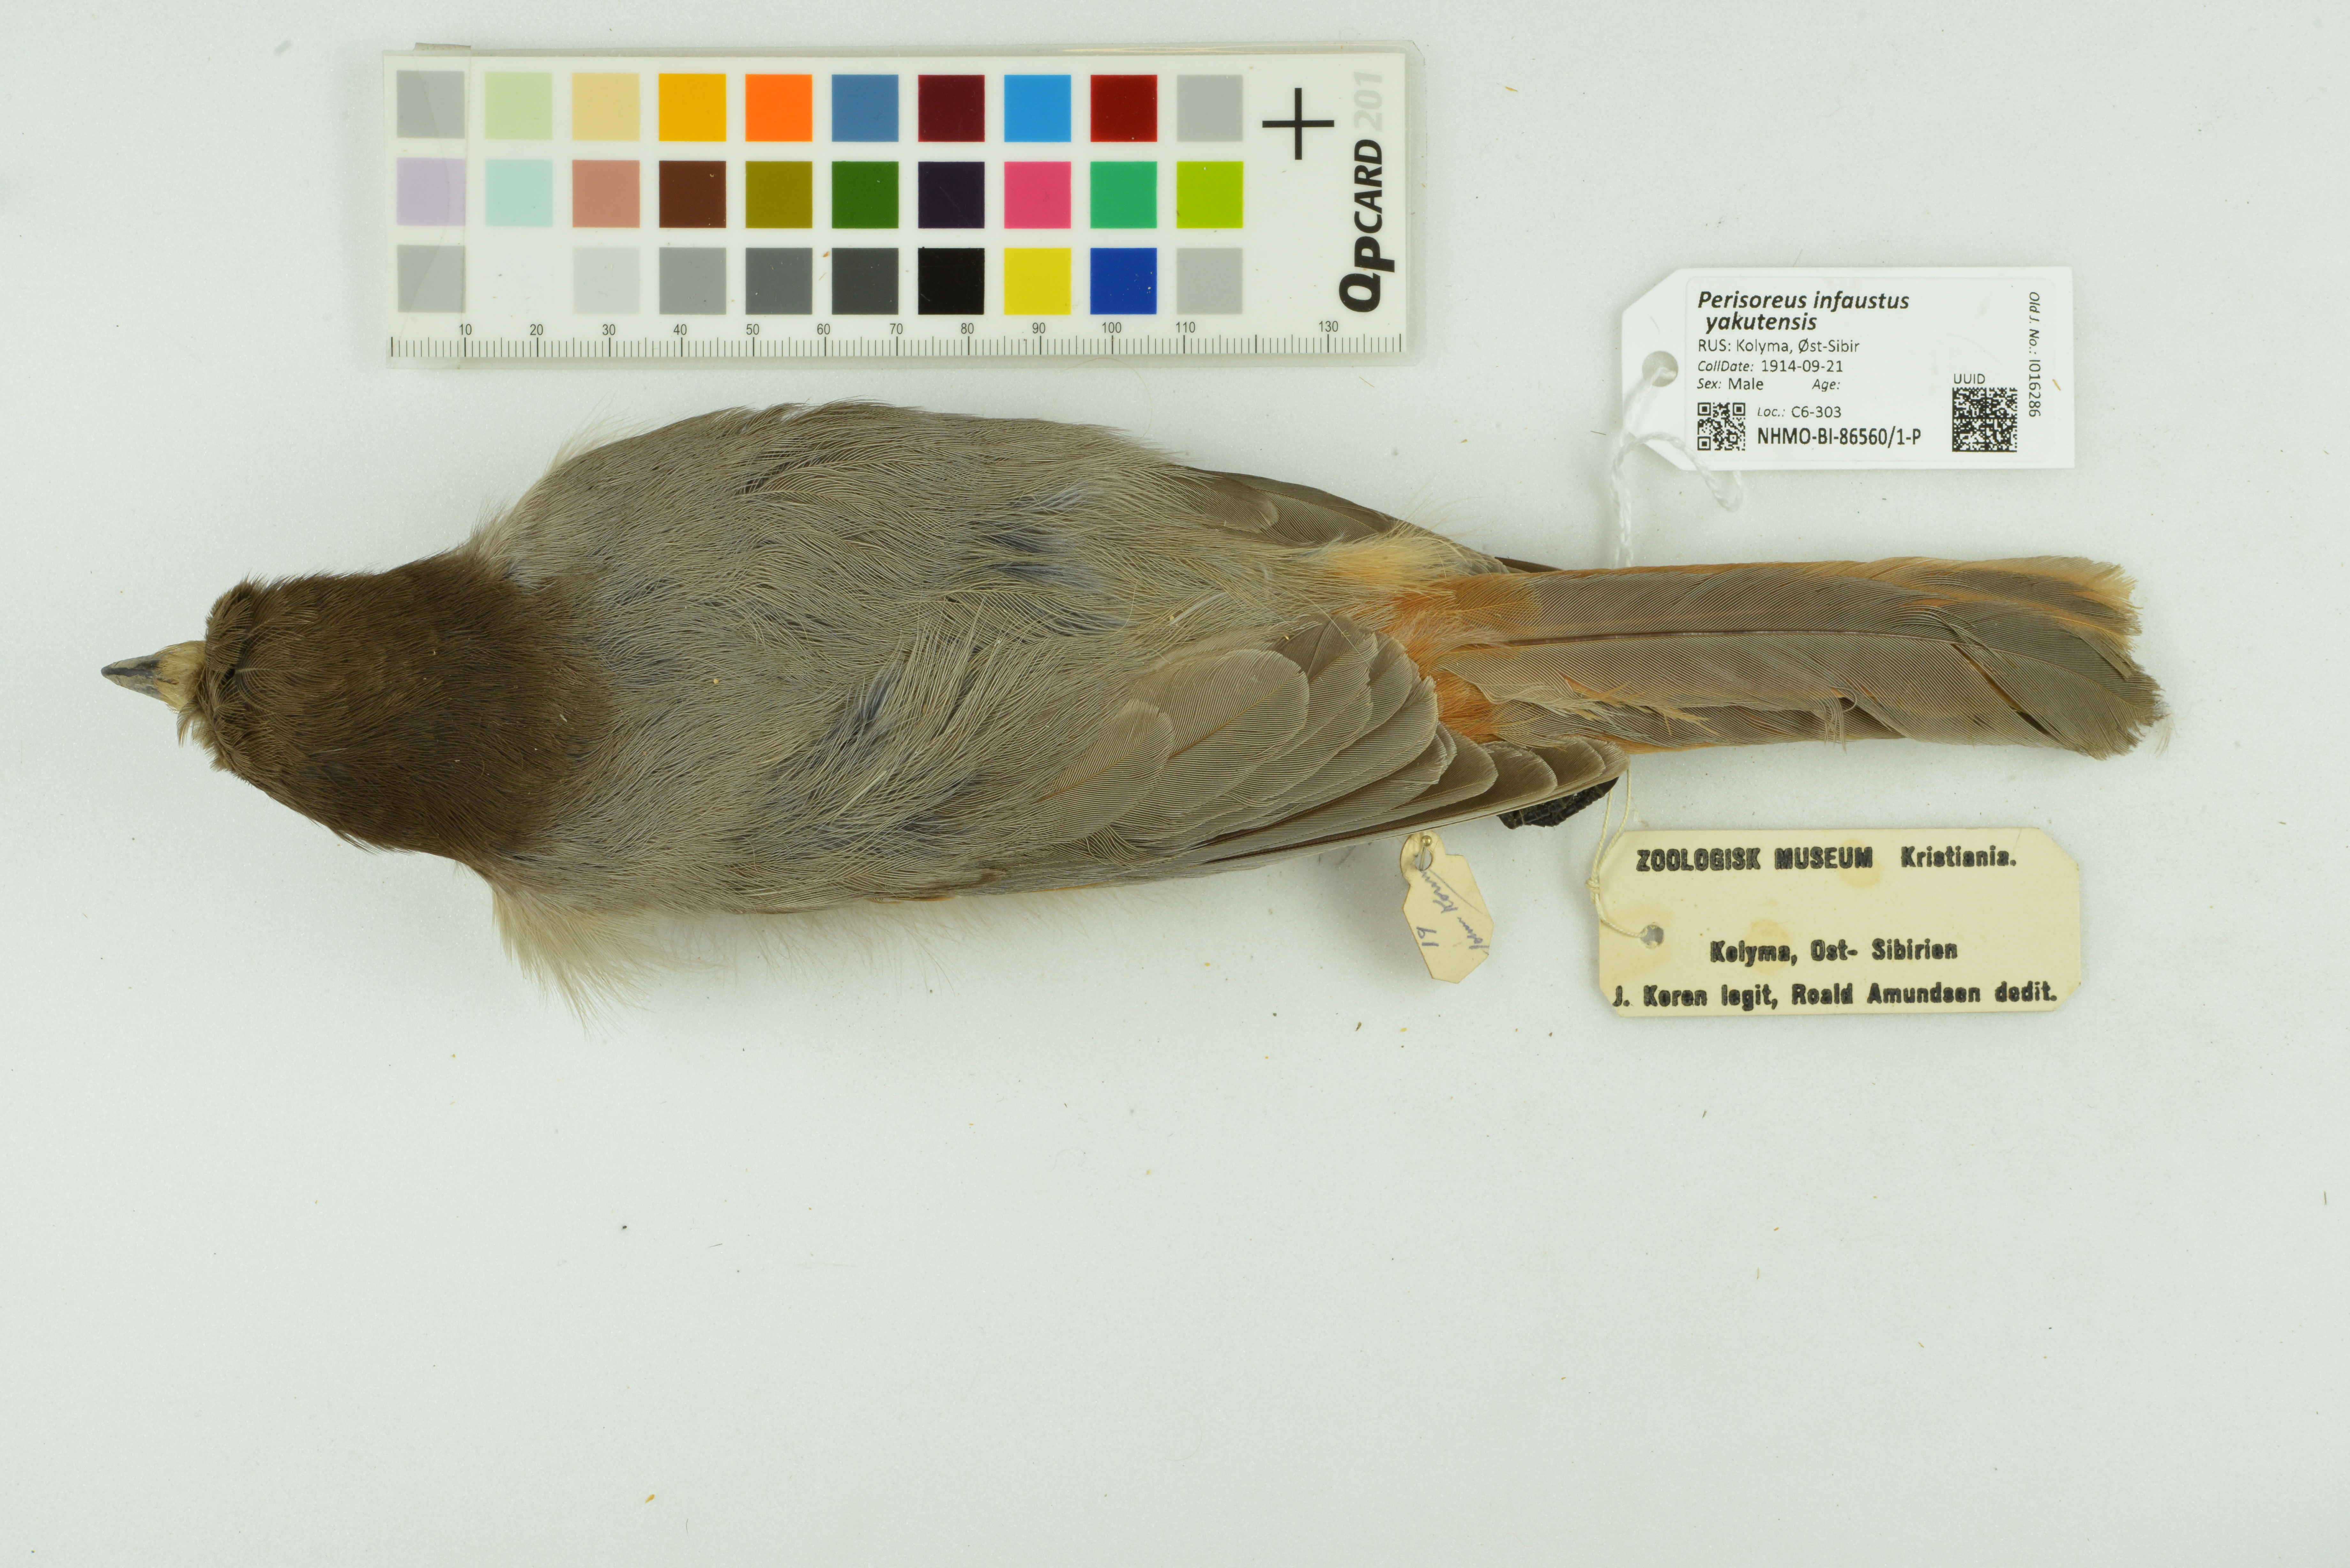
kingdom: Animalia
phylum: Chordata
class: Aves
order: Passeriformes
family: Corvidae
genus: Perisoreus
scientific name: Perisoreus infaustus
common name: Siberian jay
